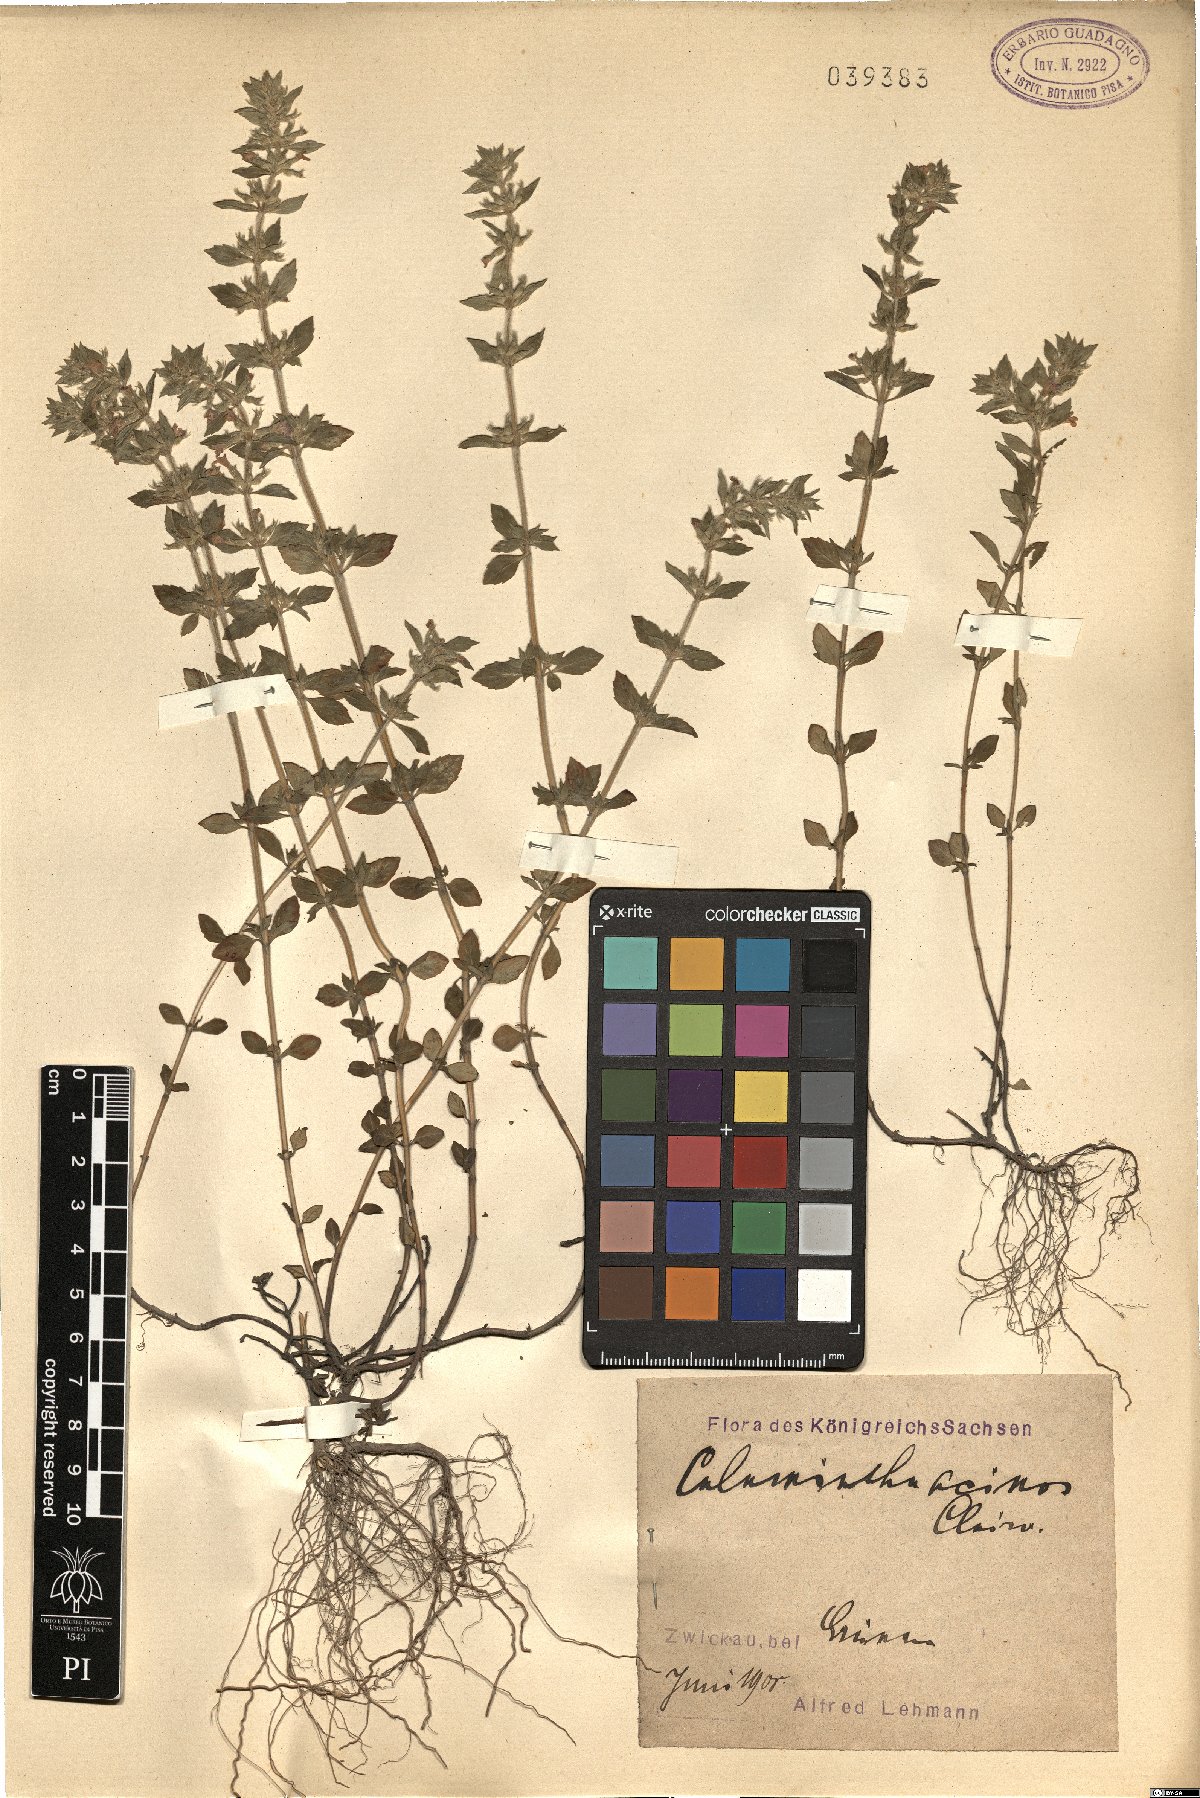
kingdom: Plantae
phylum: Tracheophyta
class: Magnoliopsida
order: Lamiales
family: Lamiaceae
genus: Clinopodium
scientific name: Clinopodium acinos
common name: Basil thyme
